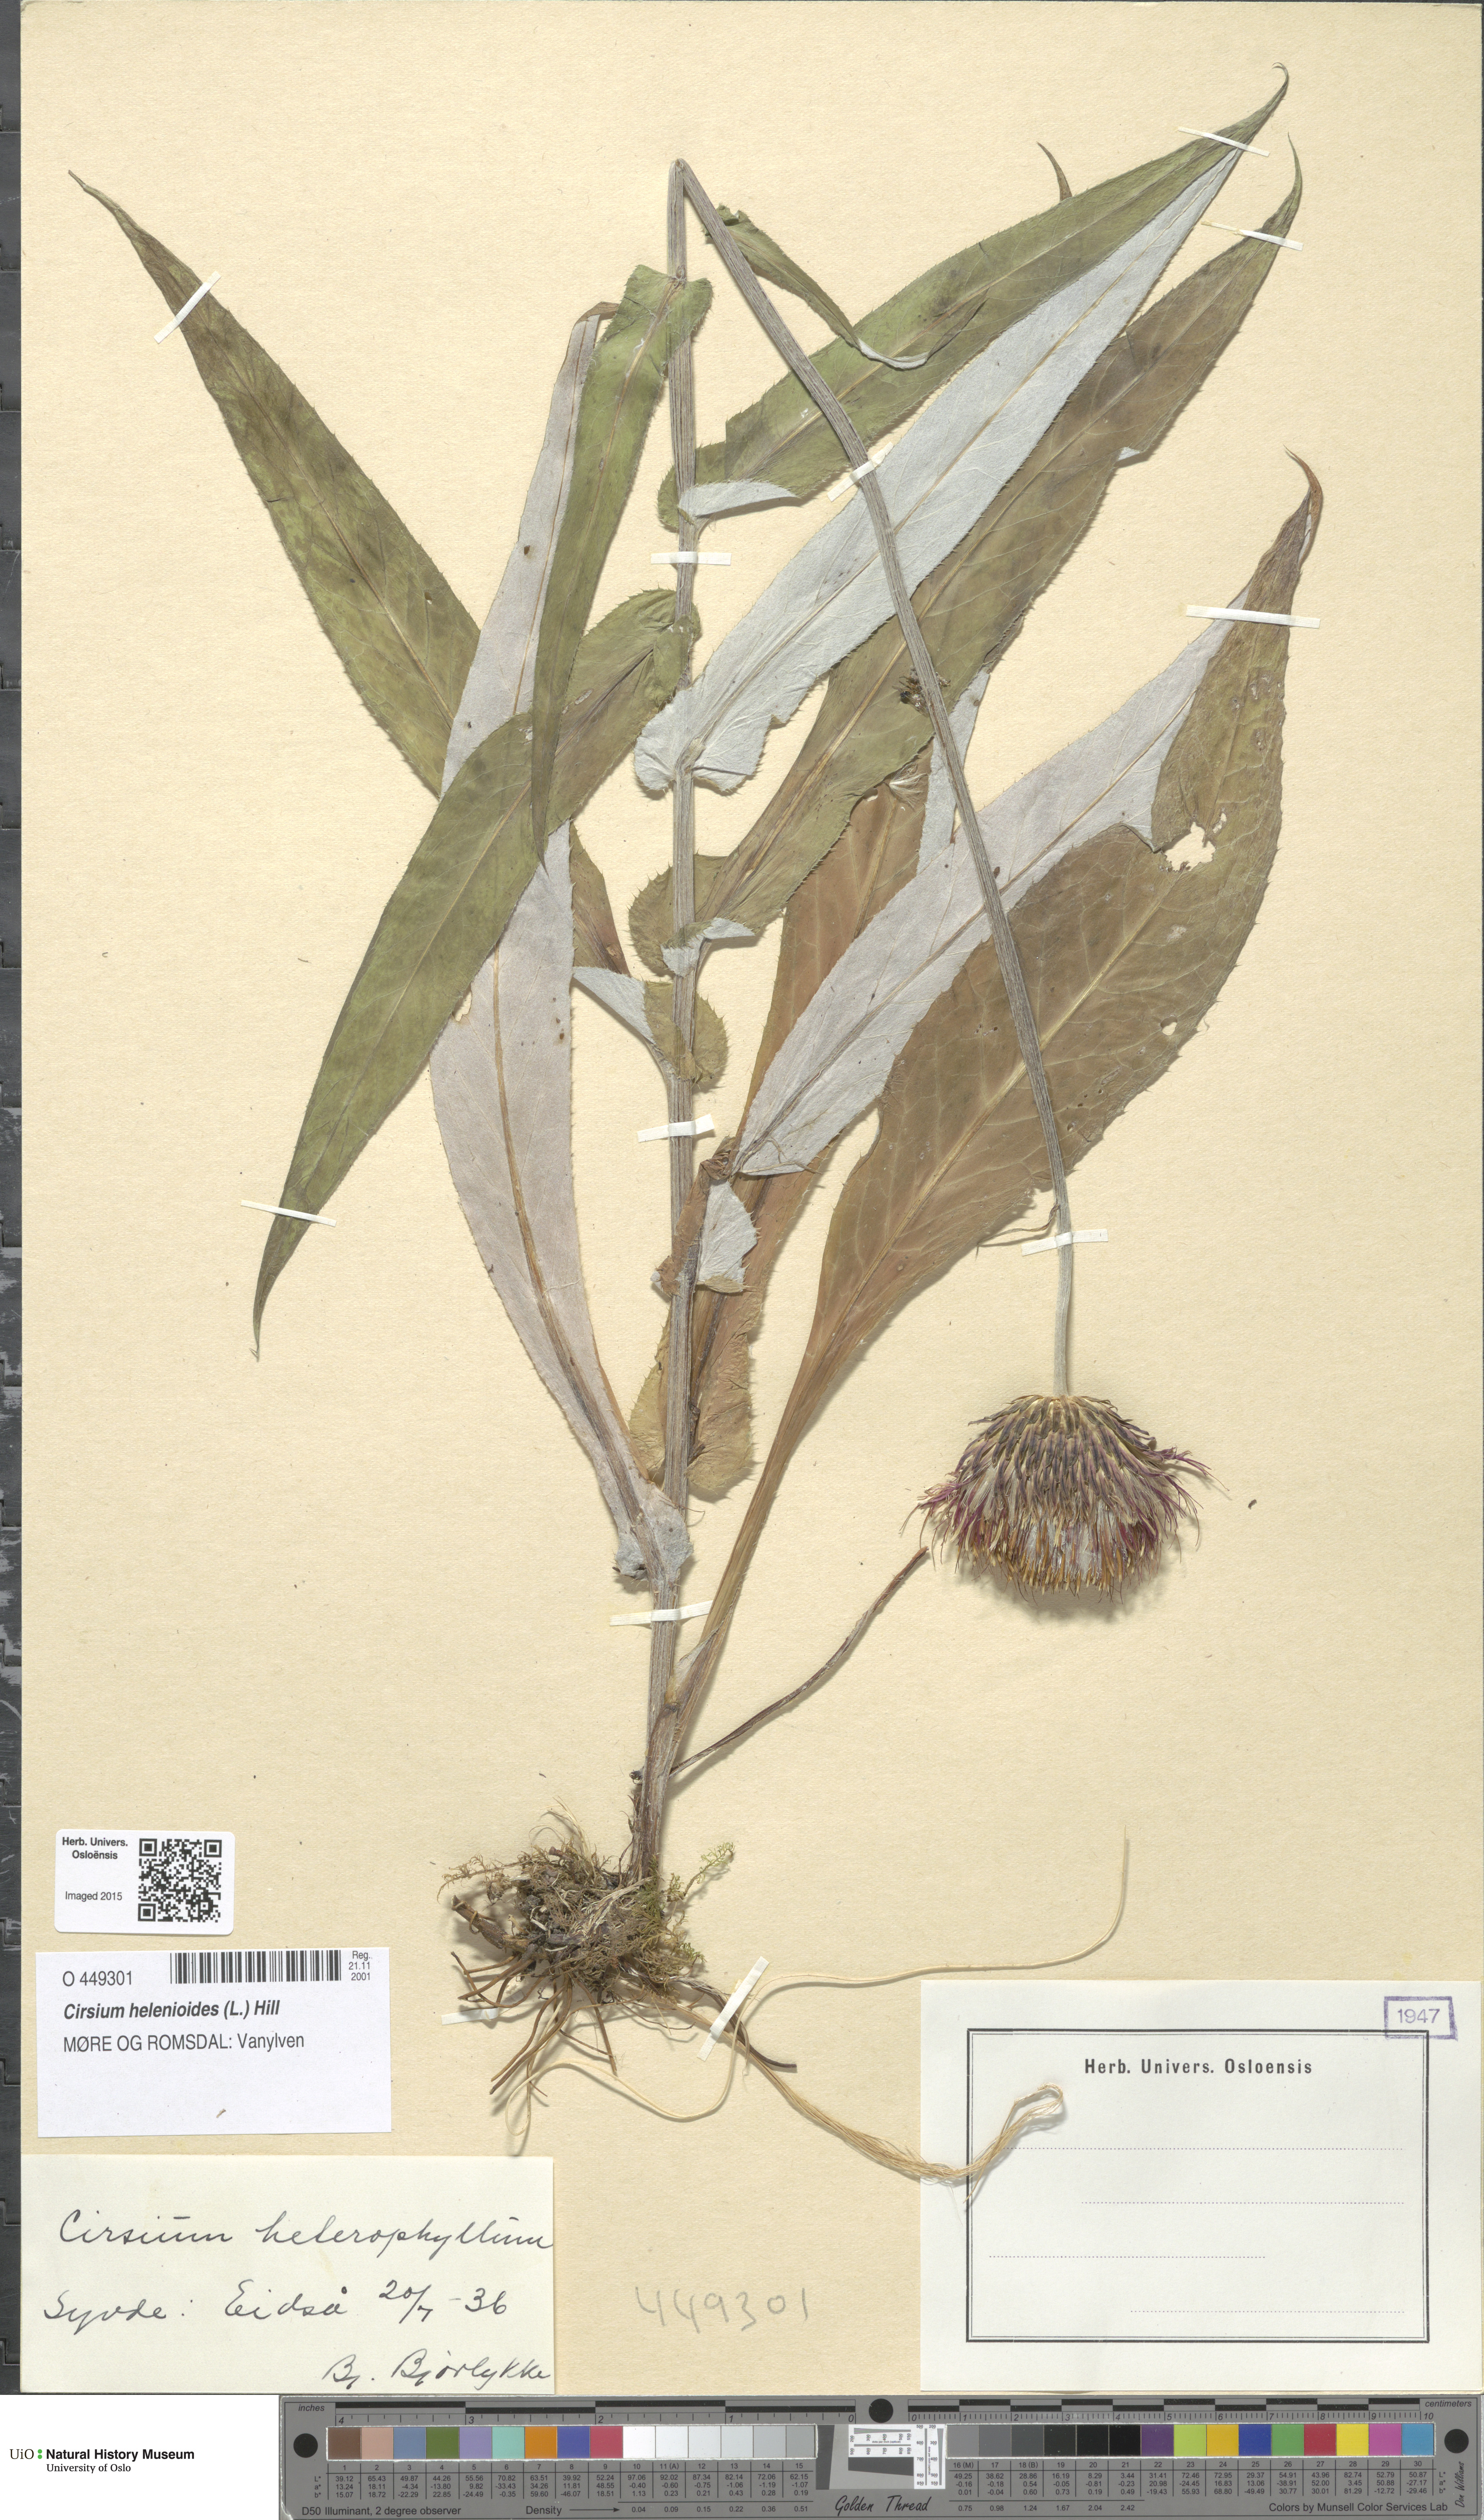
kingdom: Plantae
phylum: Tracheophyta
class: Magnoliopsida
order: Asterales
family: Asteraceae
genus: Cirsium
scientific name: Cirsium heterophyllum
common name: Melancholy thistle
